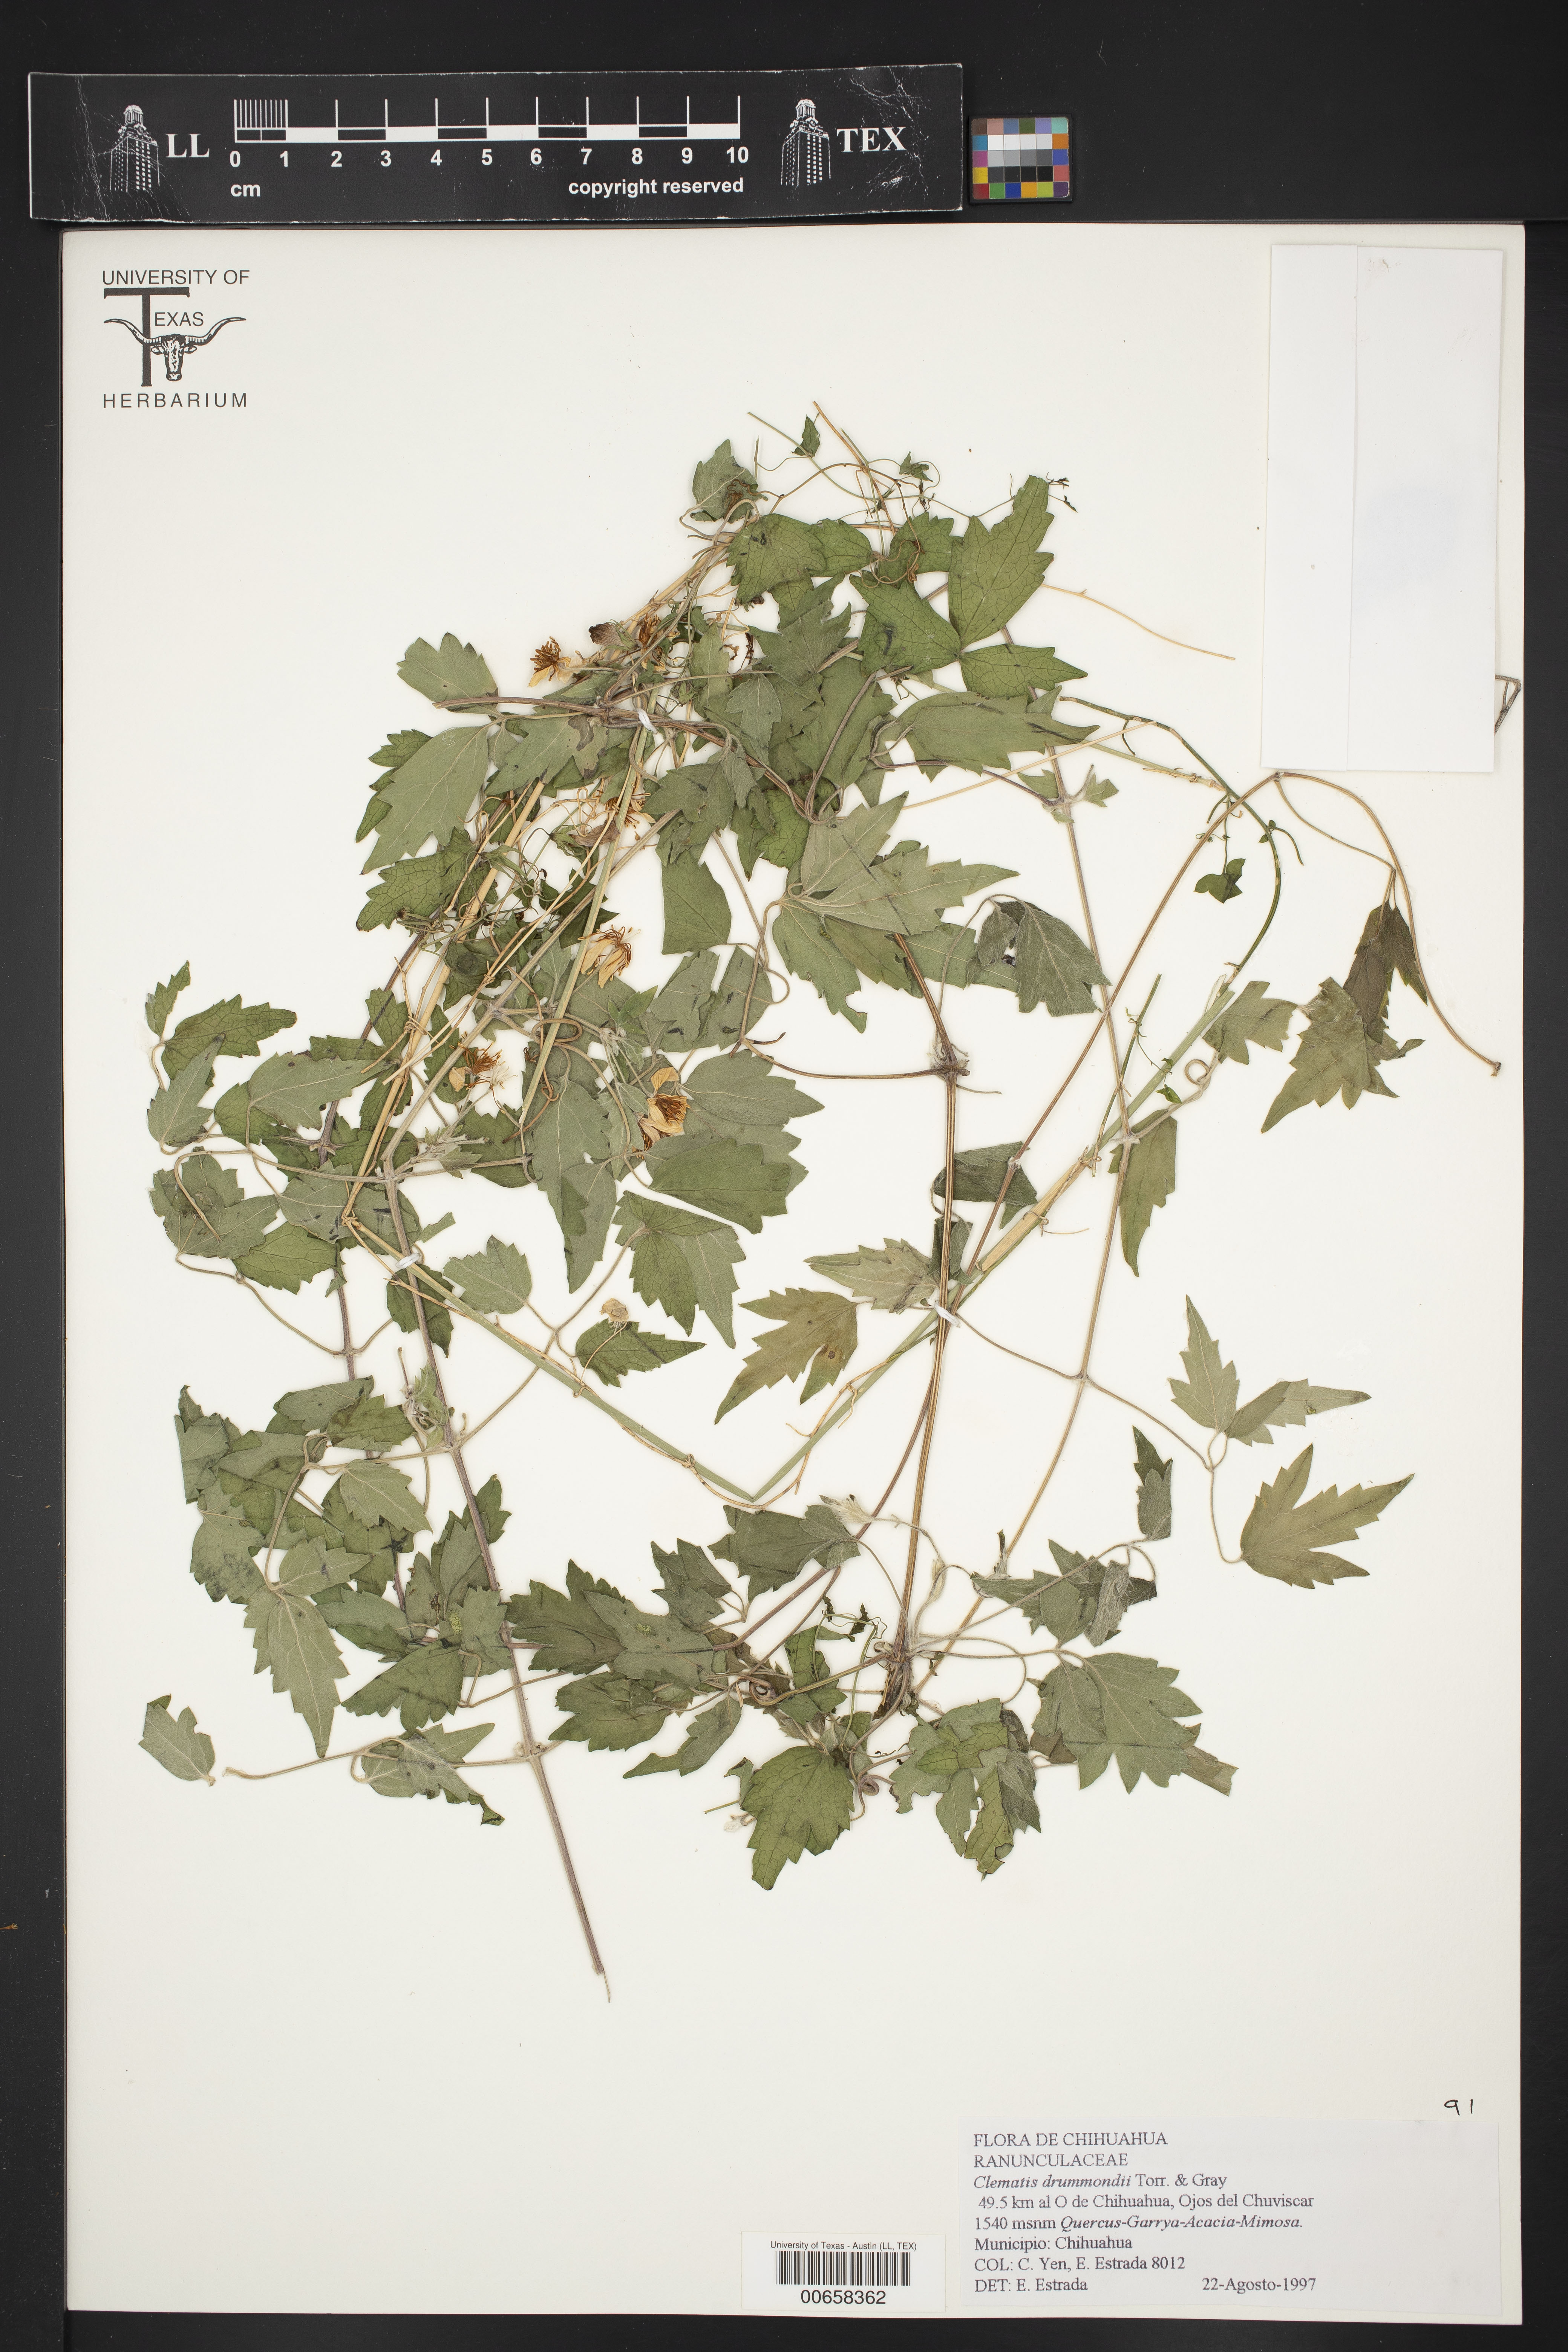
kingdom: Plantae
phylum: Tracheophyta
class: Magnoliopsida
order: Ranunculales
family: Ranunculaceae
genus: Clematis
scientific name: Clematis drummondii
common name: Texas virgin's bower
